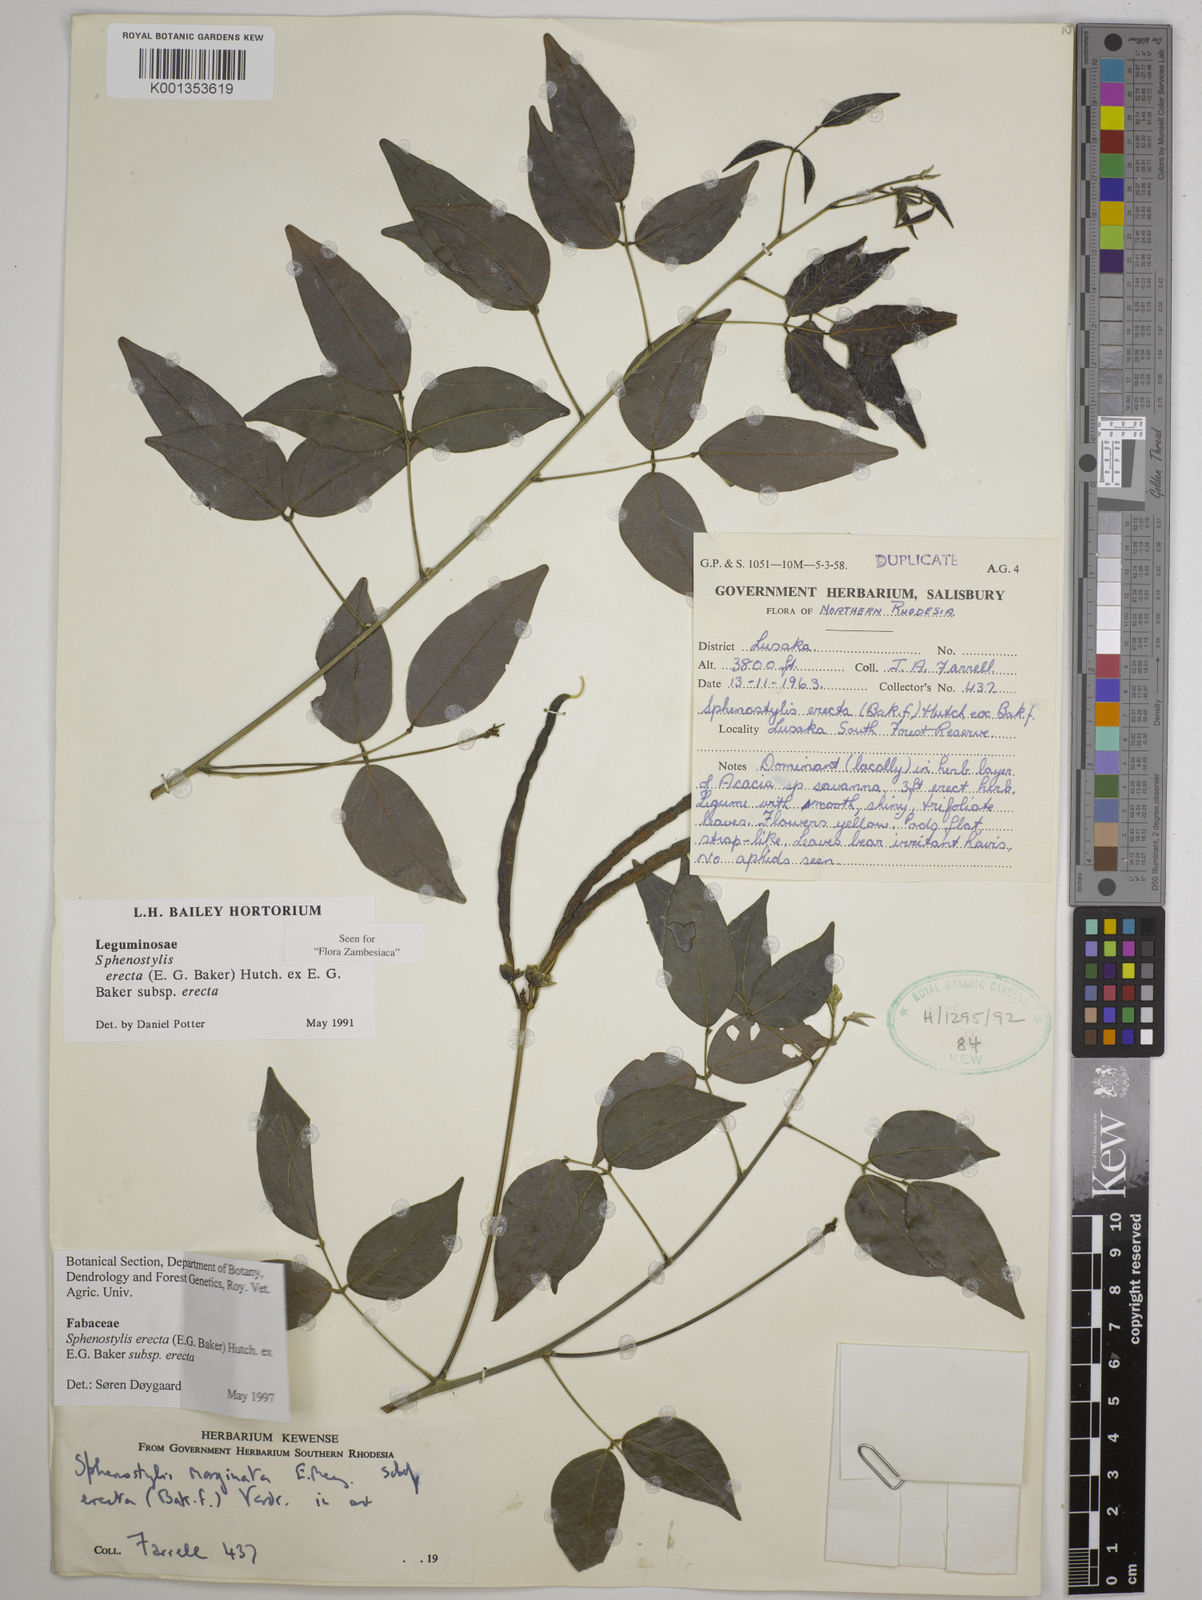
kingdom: Plantae
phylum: Tracheophyta
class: Magnoliopsida
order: Fabales
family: Fabaceae
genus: Sphenostylis
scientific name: Sphenostylis erecta
